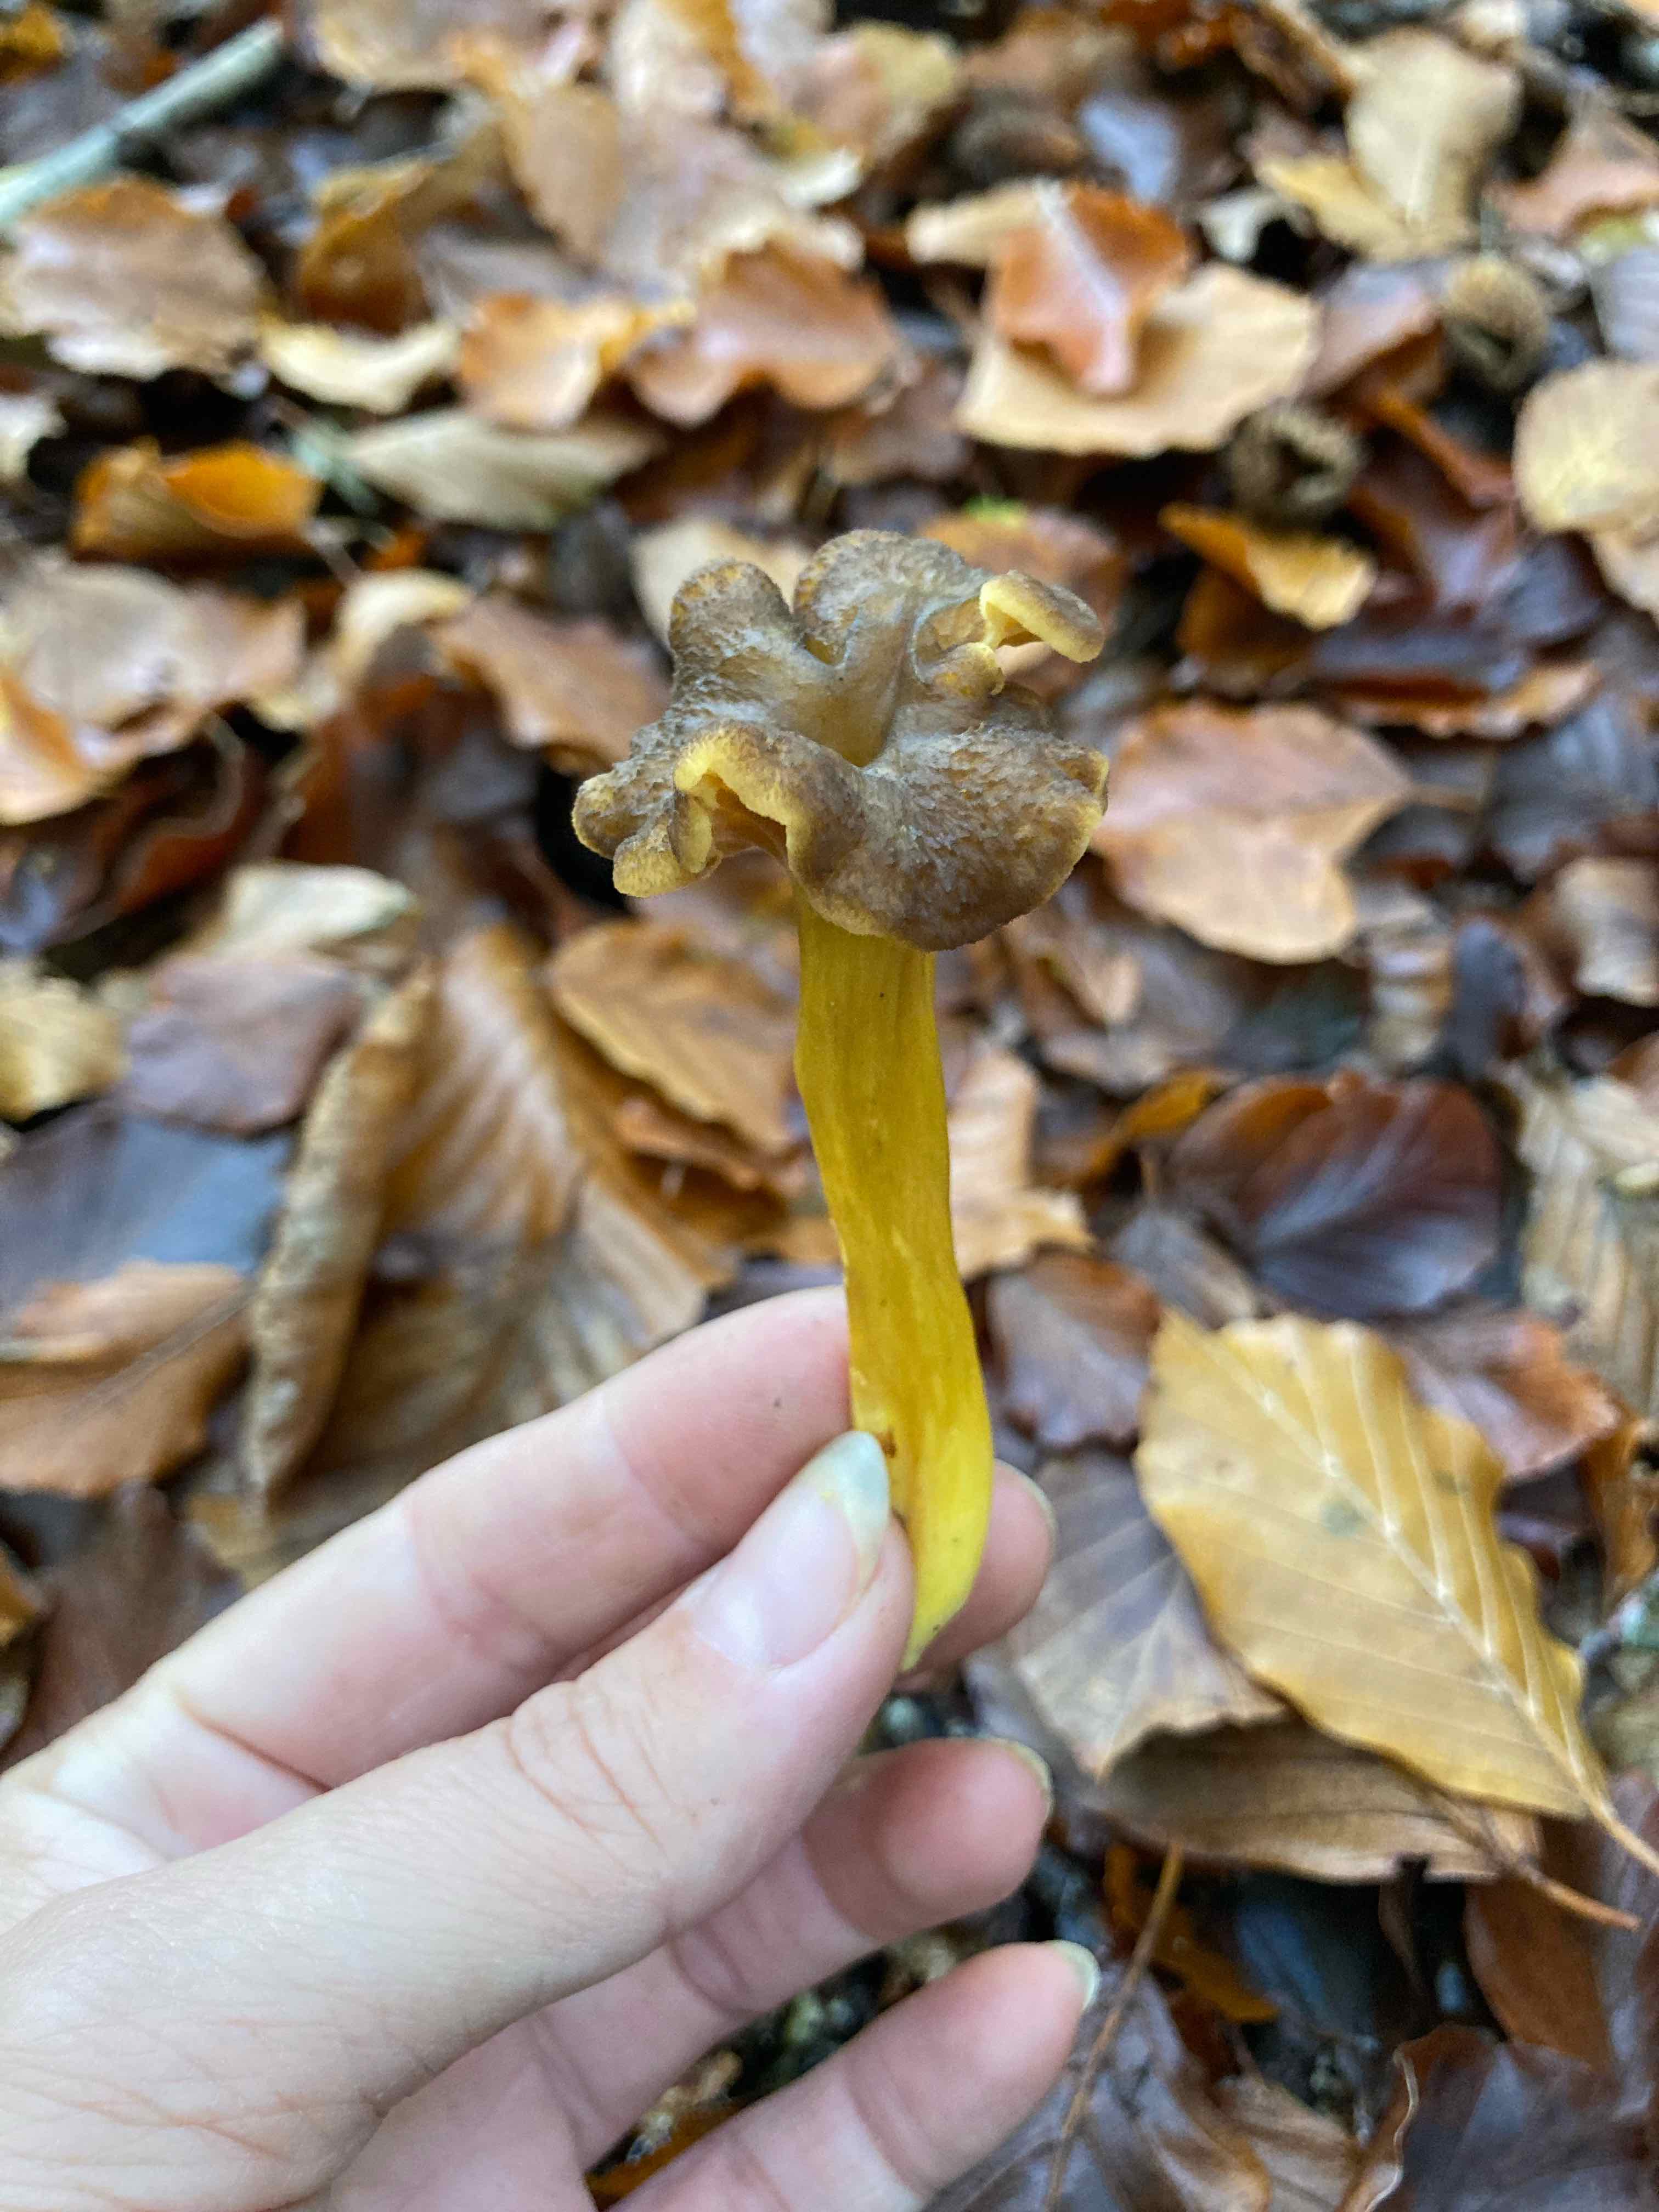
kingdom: Fungi
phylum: Basidiomycota
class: Agaricomycetes
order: Cantharellales
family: Hydnaceae
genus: Craterellus
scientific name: Craterellus tubaeformis
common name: tragt-kantarel
